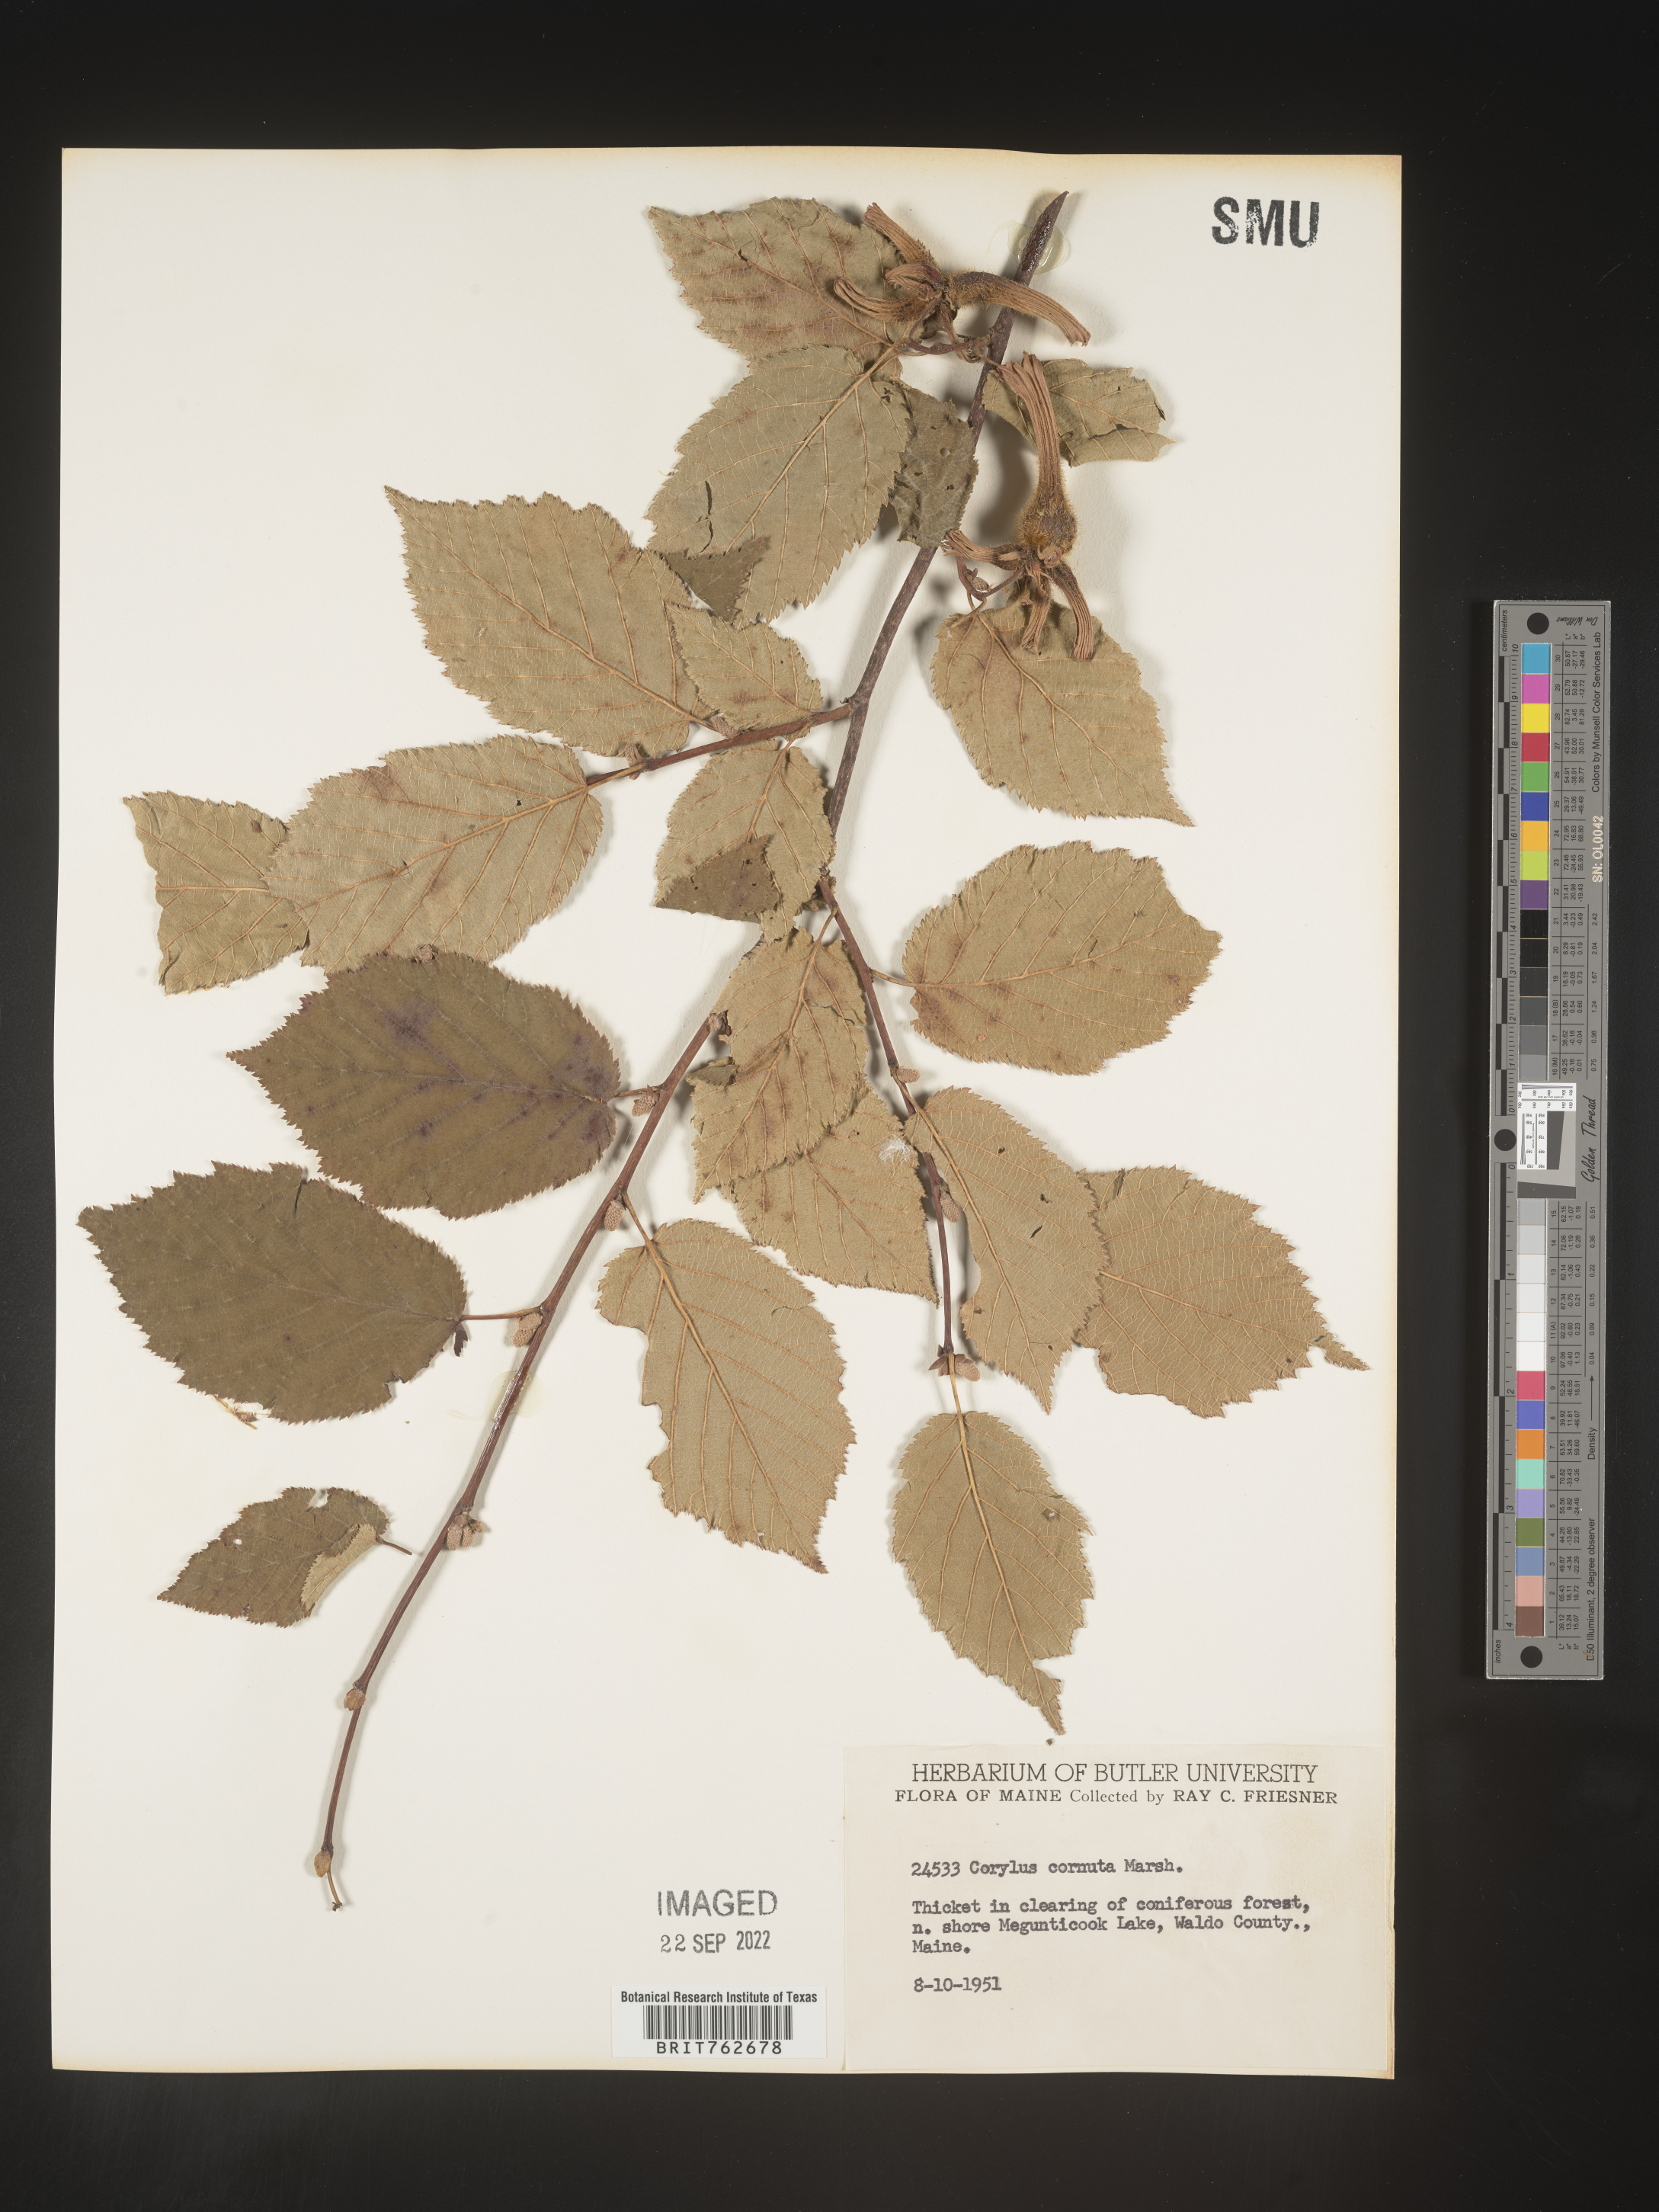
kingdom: Plantae
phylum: Tracheophyta
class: Magnoliopsida
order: Fagales
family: Betulaceae
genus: Corylus
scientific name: Corylus cornuta
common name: Beaked hazel
